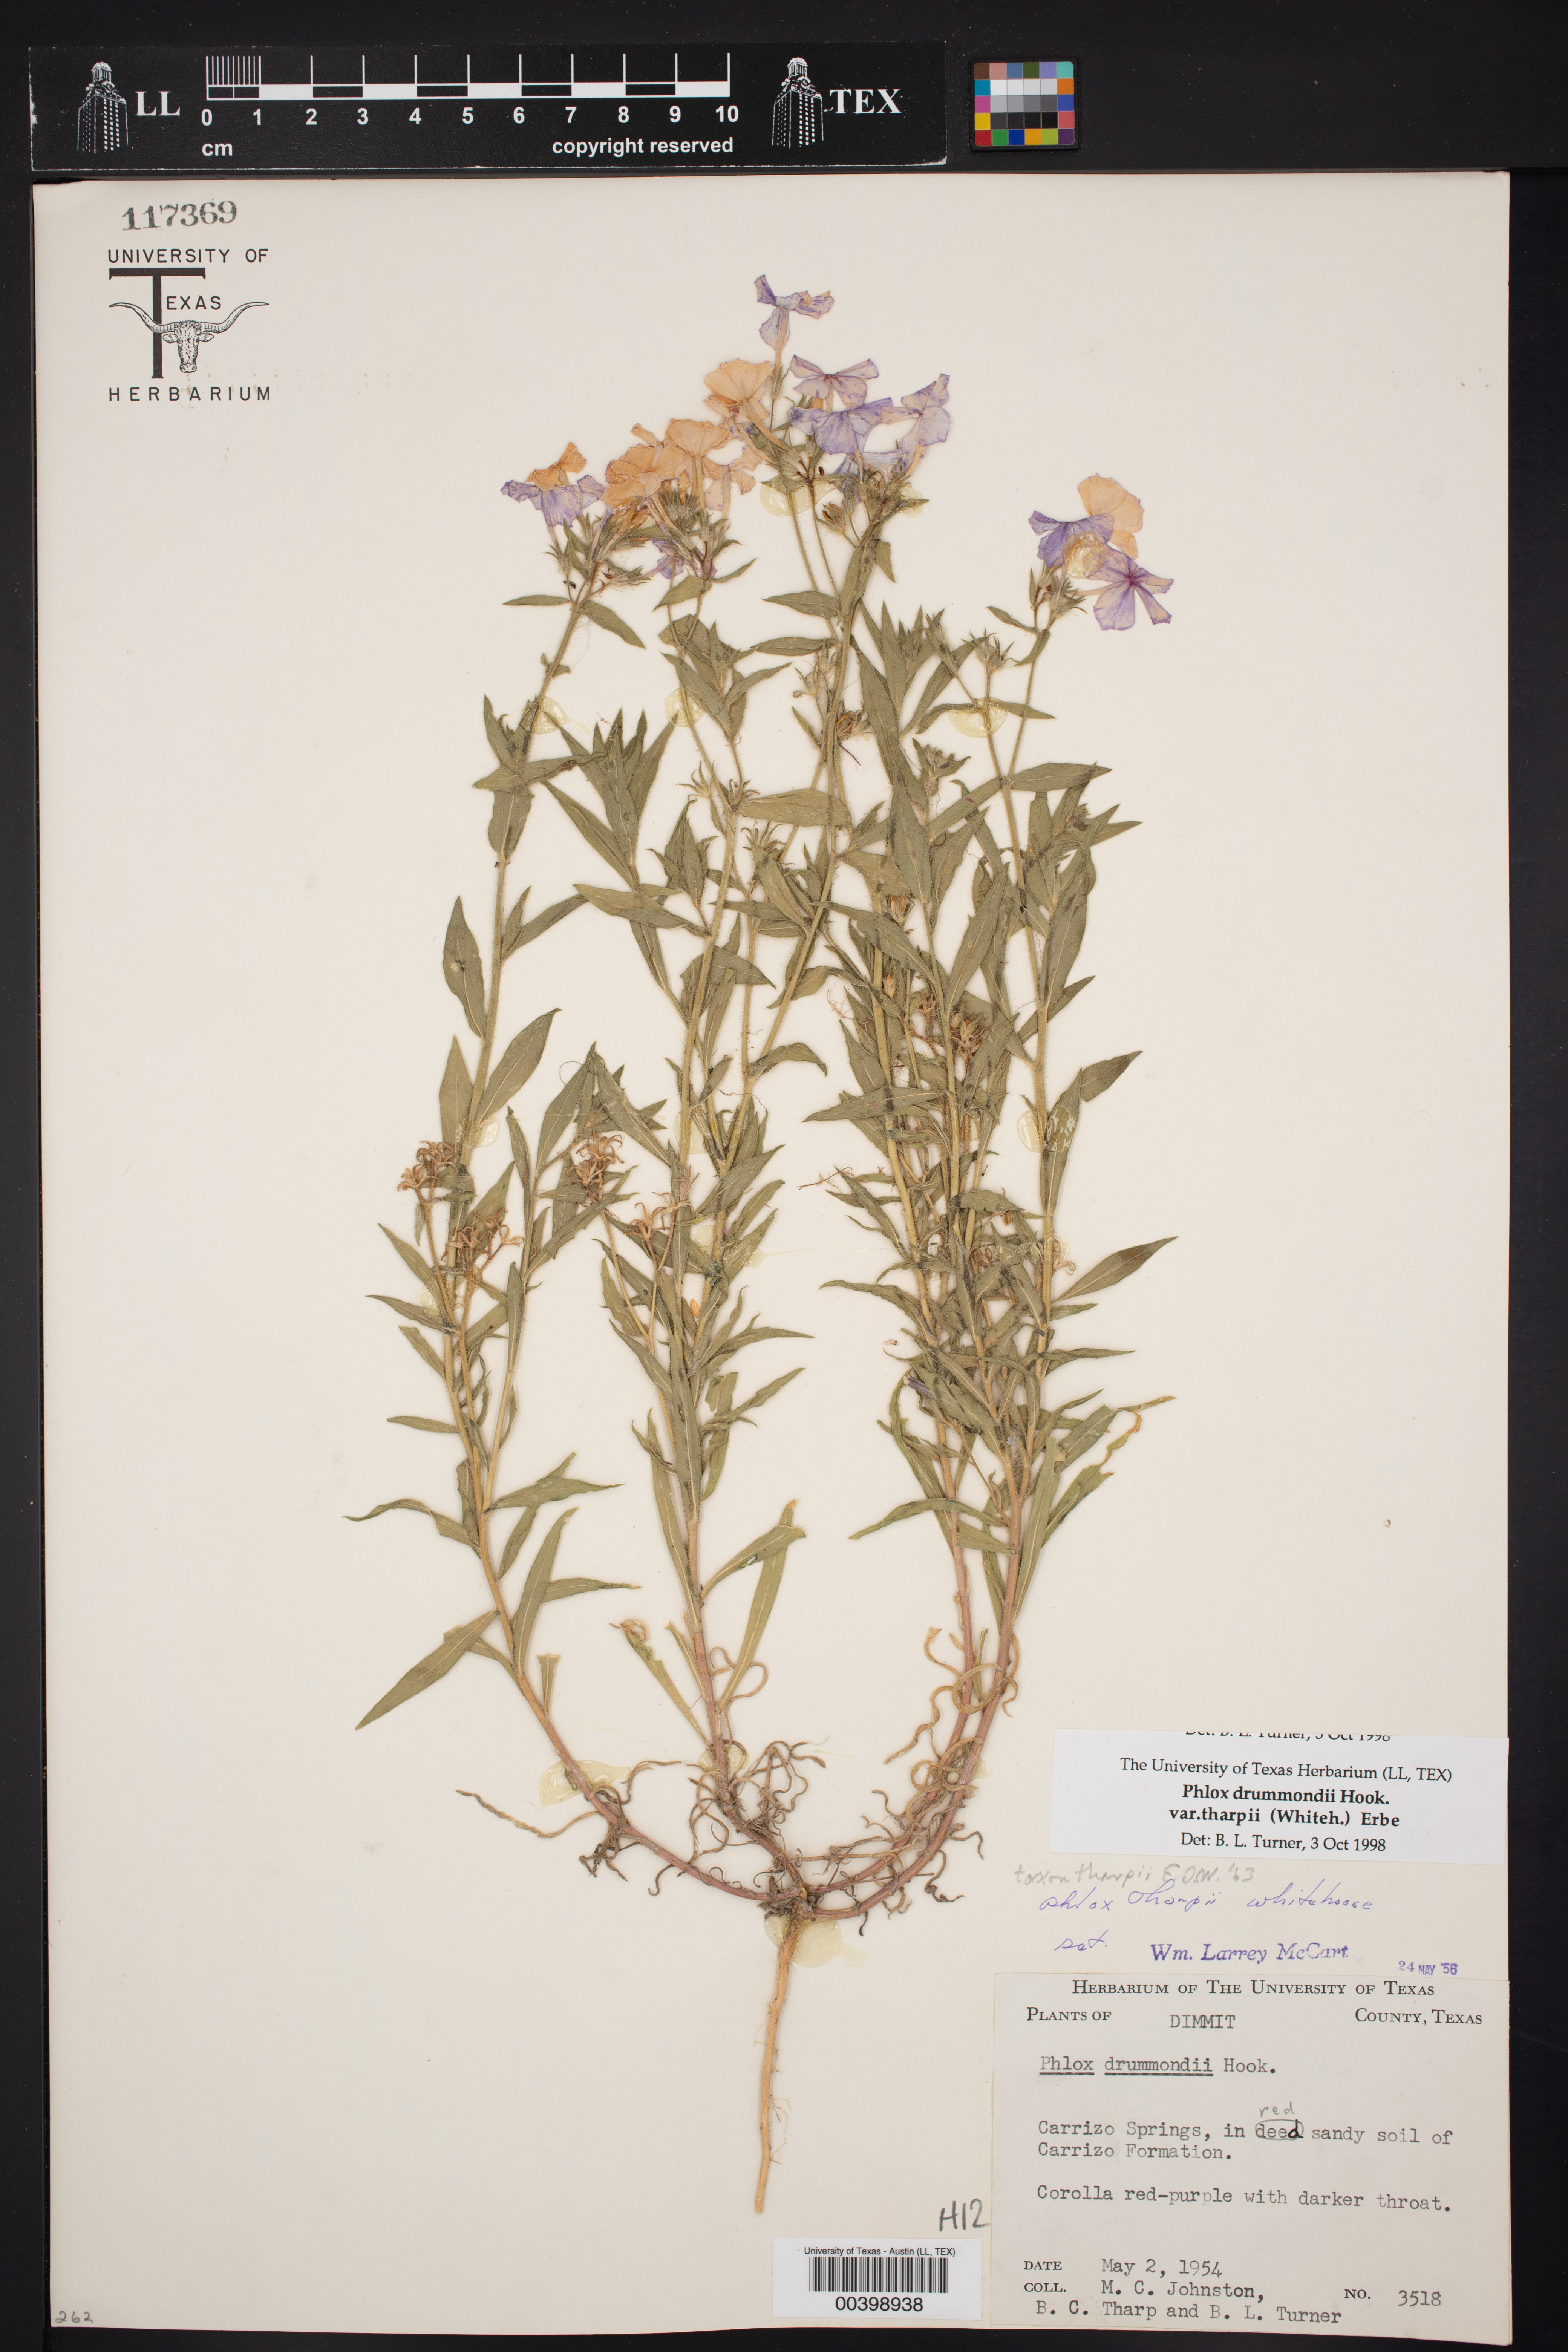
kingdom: Plantae
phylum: Tracheophyta
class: Magnoliopsida
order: Ericales
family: Polemoniaceae
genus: Phlox
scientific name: Phlox drummondii
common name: Drummond's phlox
